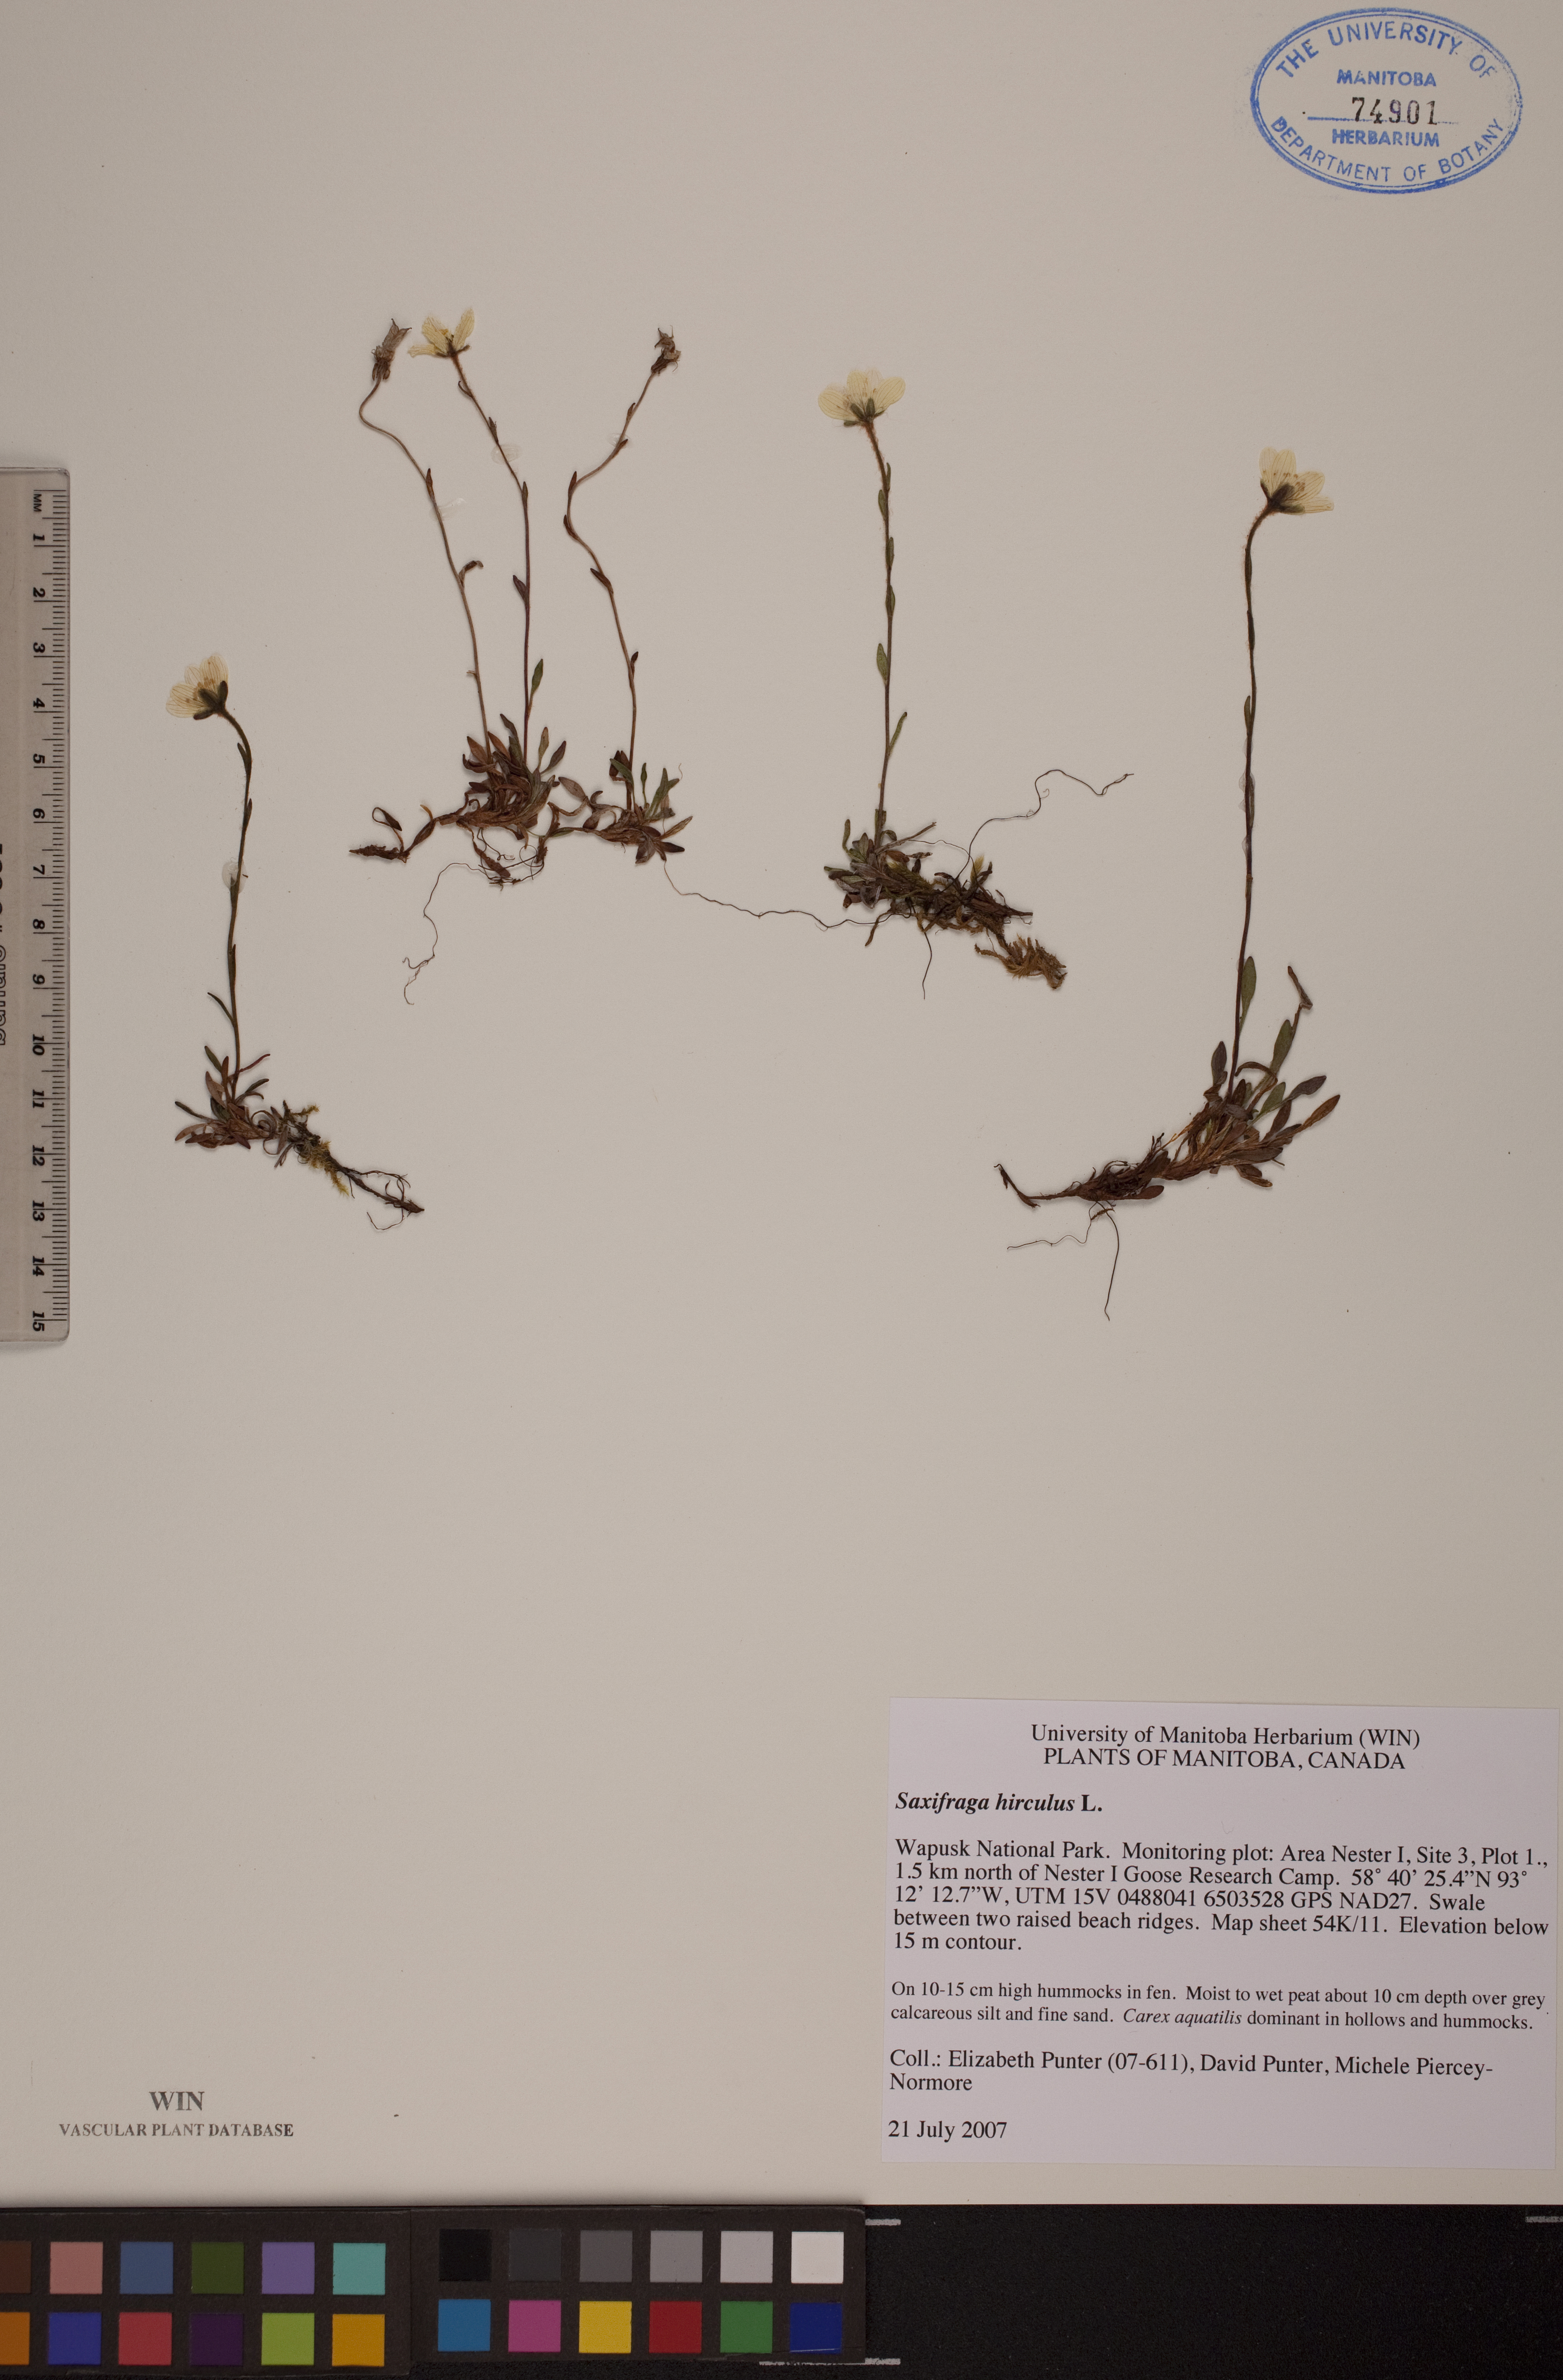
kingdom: Plantae
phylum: Tracheophyta
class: Magnoliopsida
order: Saxifragales
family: Saxifragaceae
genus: Saxifraga
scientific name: Saxifraga hirculus
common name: Yellow marsh saxifrage
